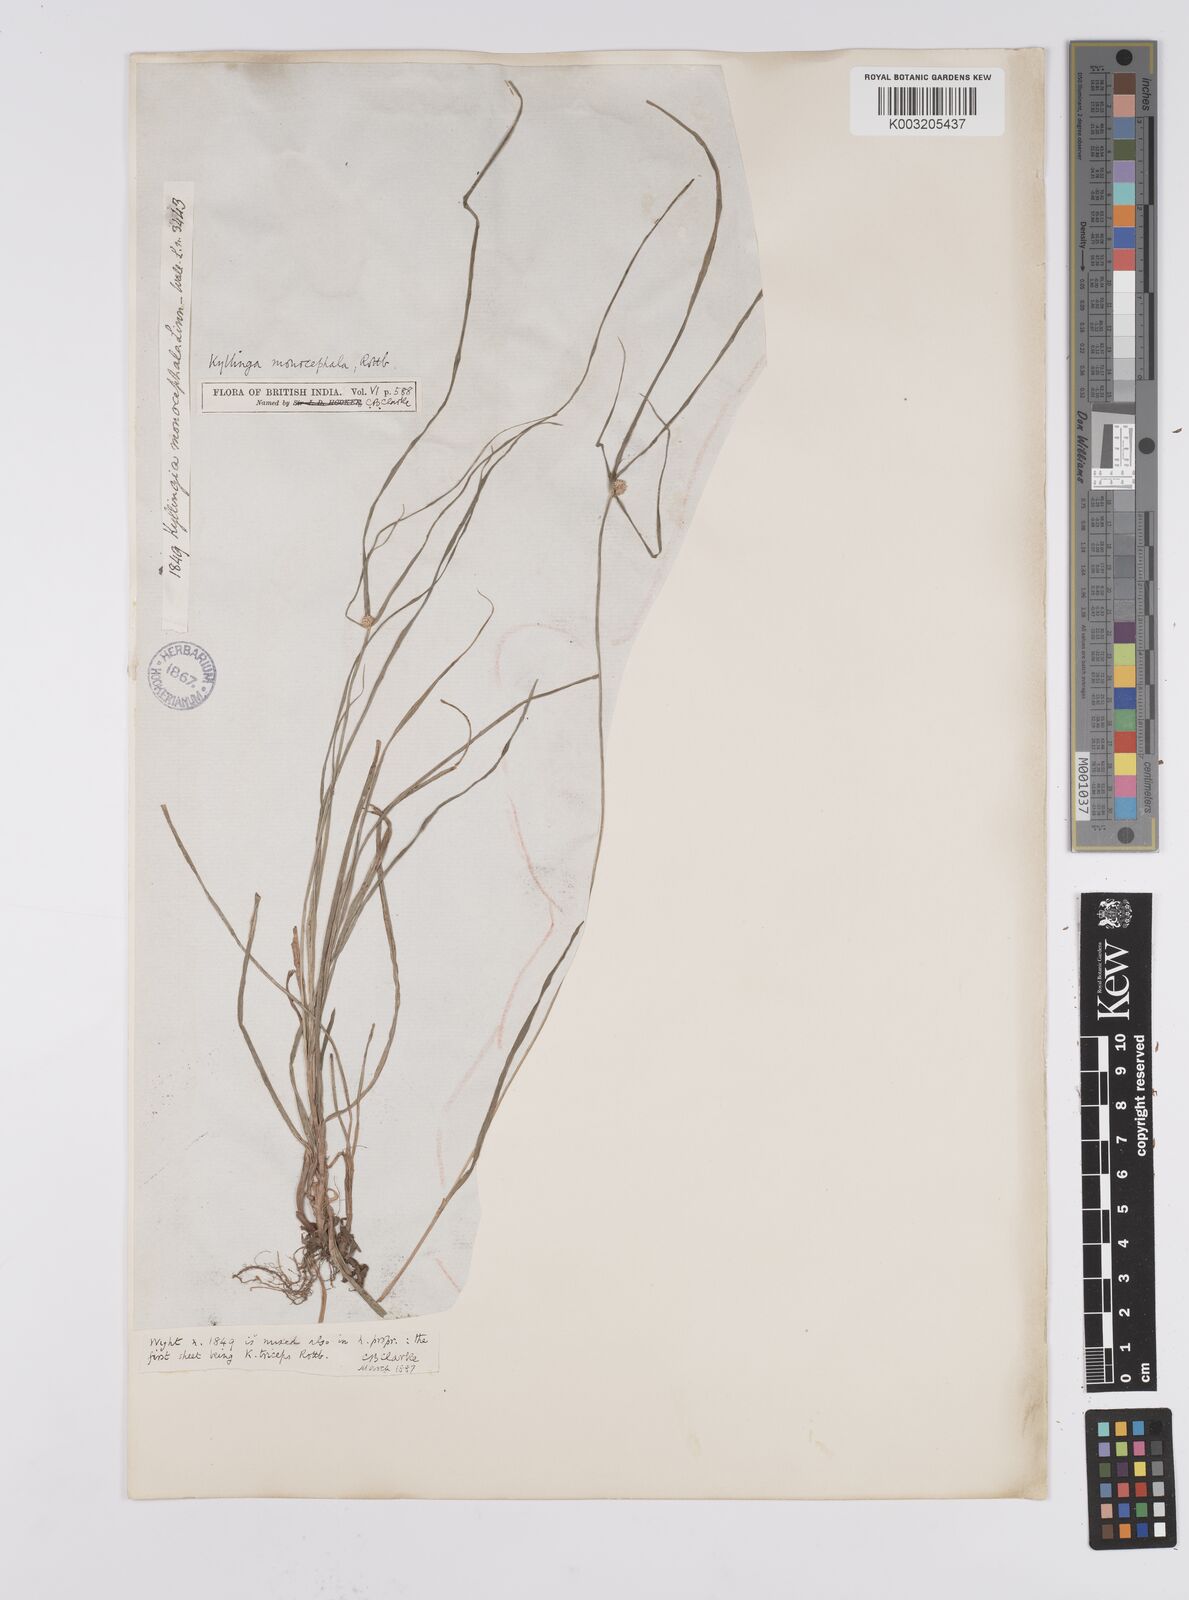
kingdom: Plantae
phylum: Tracheophyta
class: Liliopsida
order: Poales
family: Cyperaceae
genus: Cyperus
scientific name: Cyperus nemoralis
